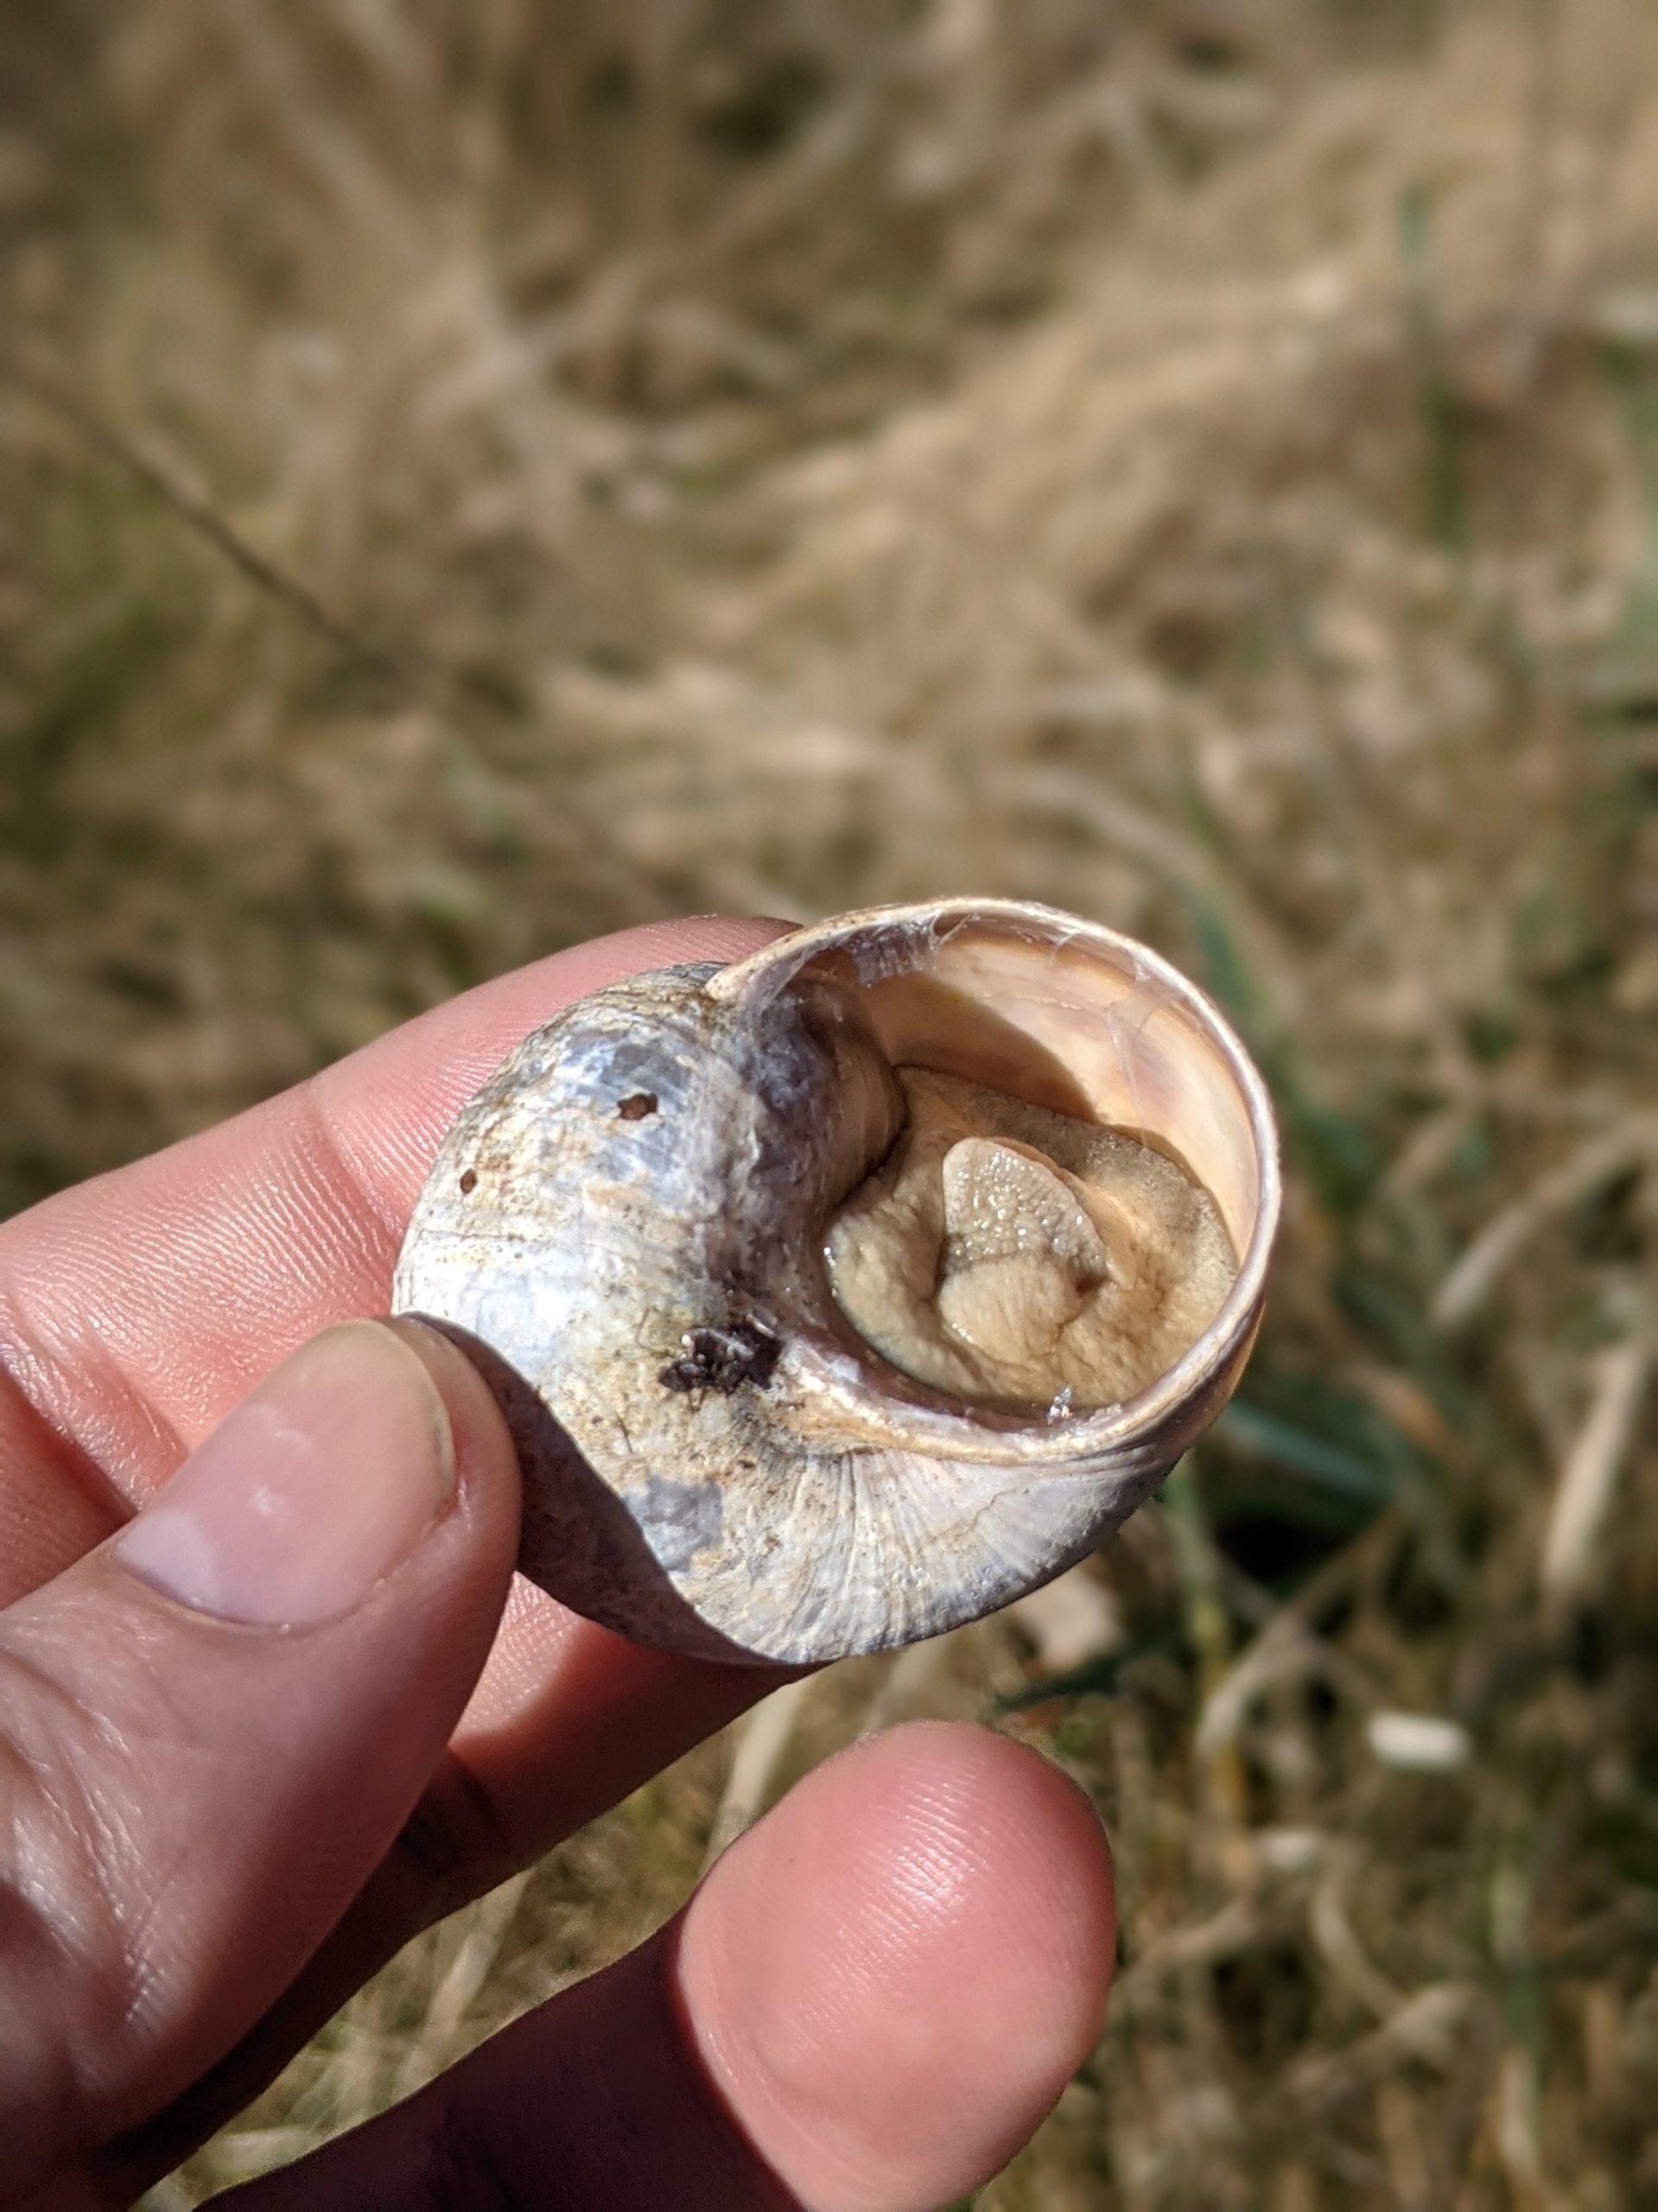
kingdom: Animalia
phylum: Mollusca
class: Gastropoda
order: Stylommatophora
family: Helicidae
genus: Helix
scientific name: Helix pomatia
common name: Vinbjergsnegl
